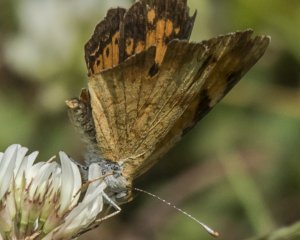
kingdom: Animalia
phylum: Arthropoda
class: Insecta
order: Lepidoptera
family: Nymphalidae
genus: Phyciodes
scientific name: Phyciodes tharos
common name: Northern Crescent
